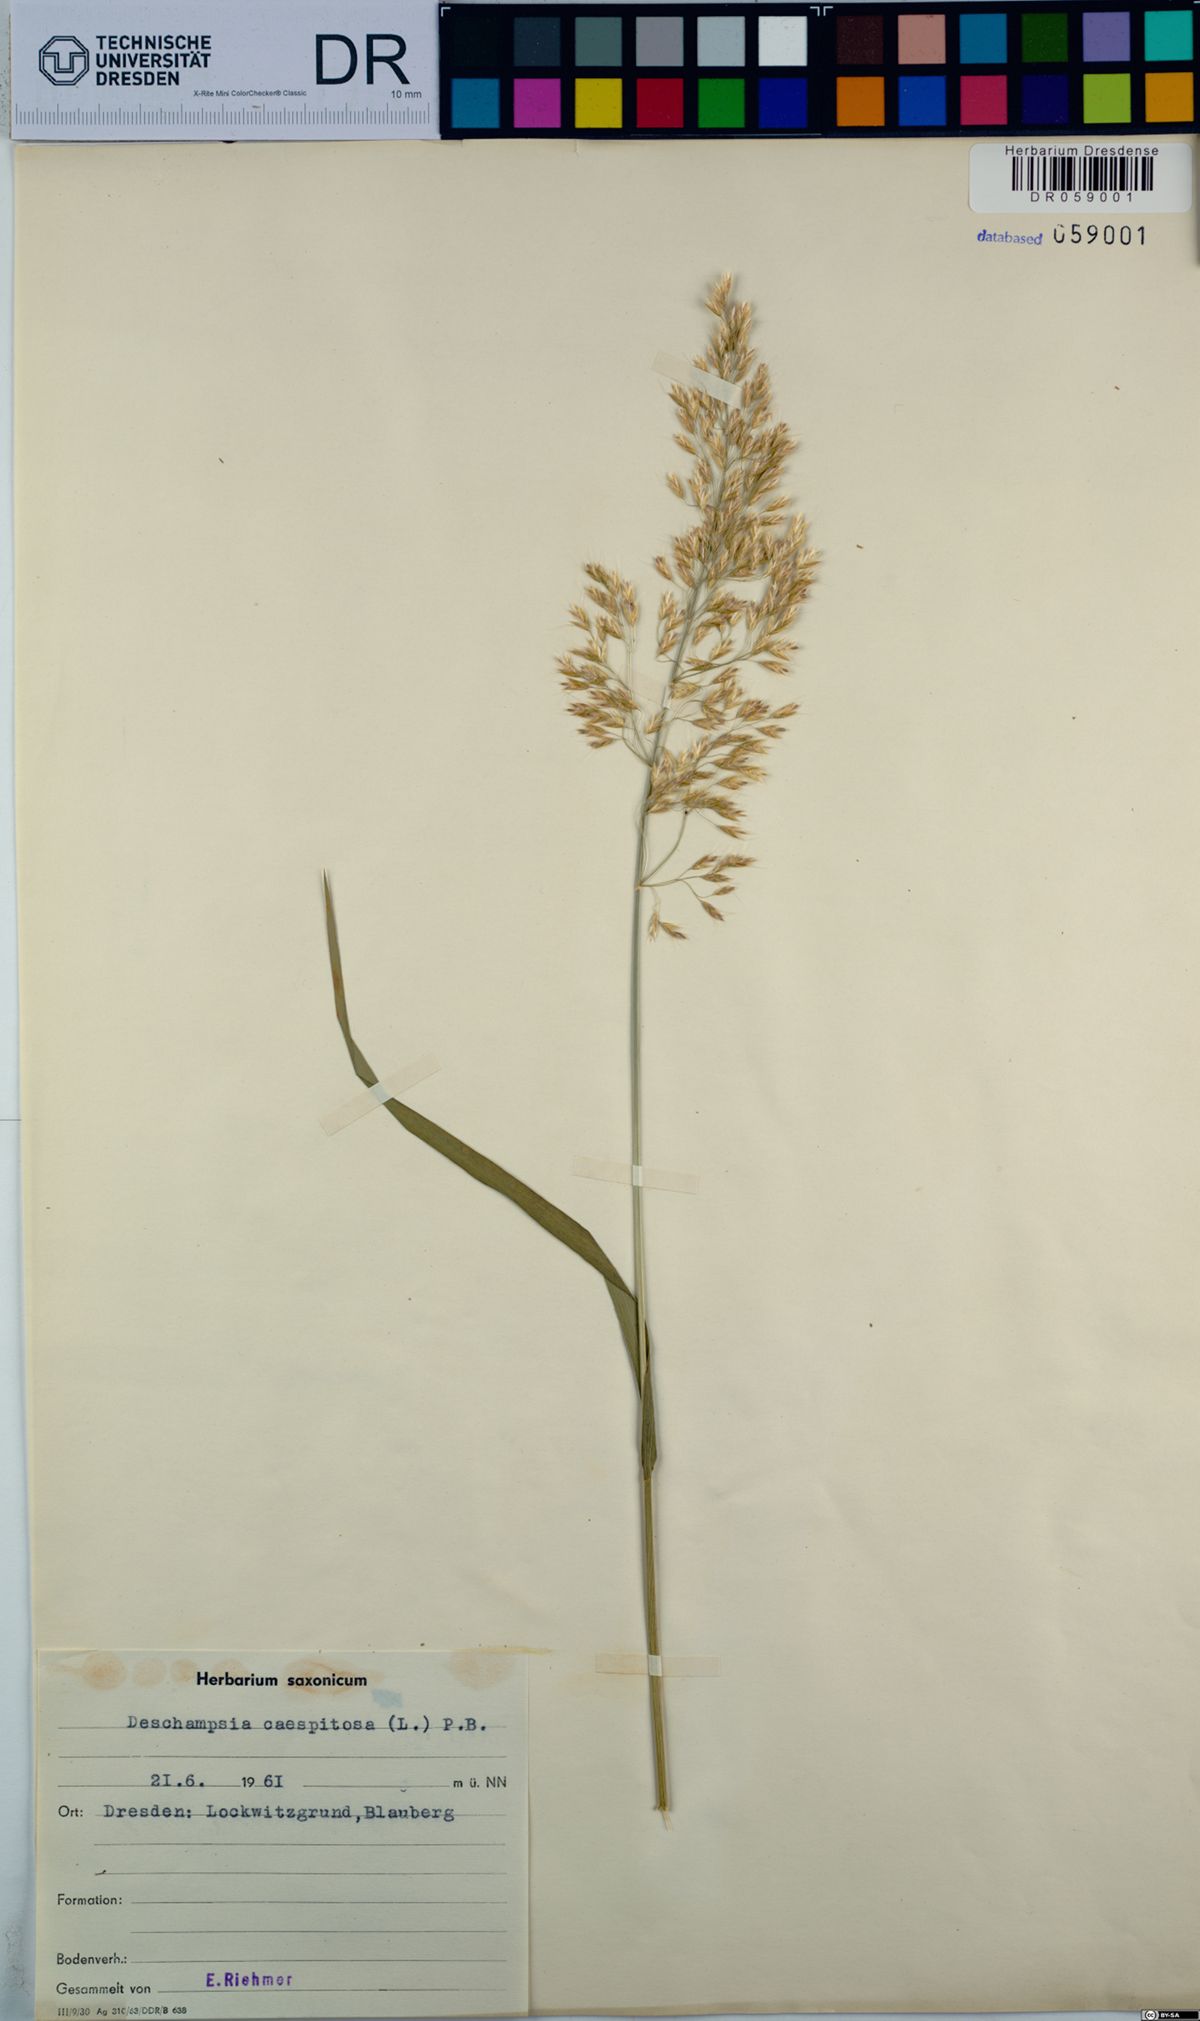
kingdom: Plantae
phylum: Tracheophyta
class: Liliopsida
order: Poales
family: Poaceae
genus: Deschampsia
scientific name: Deschampsia cespitosa
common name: Tufted hair-grass
